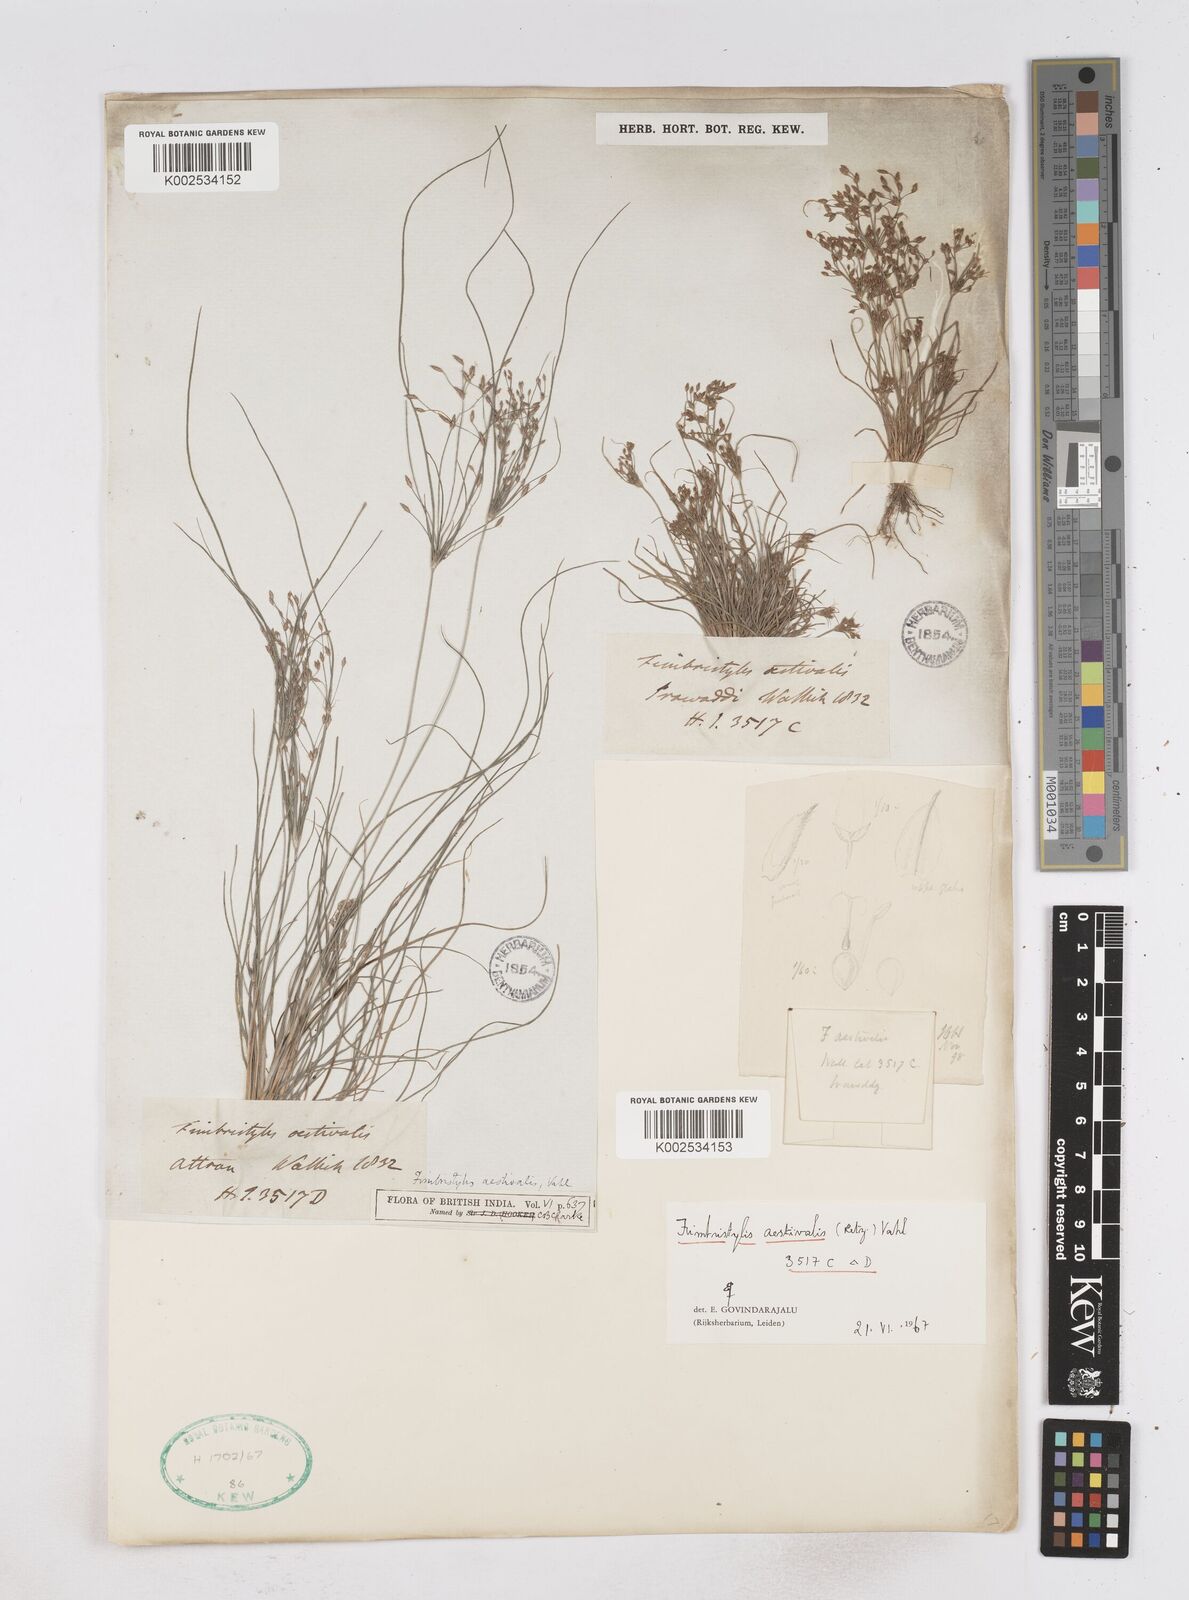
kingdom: Plantae
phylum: Tracheophyta
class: Liliopsida
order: Poales
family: Cyperaceae
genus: Fimbristylis
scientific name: Fimbristylis aestivalis
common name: Summer fimbry
